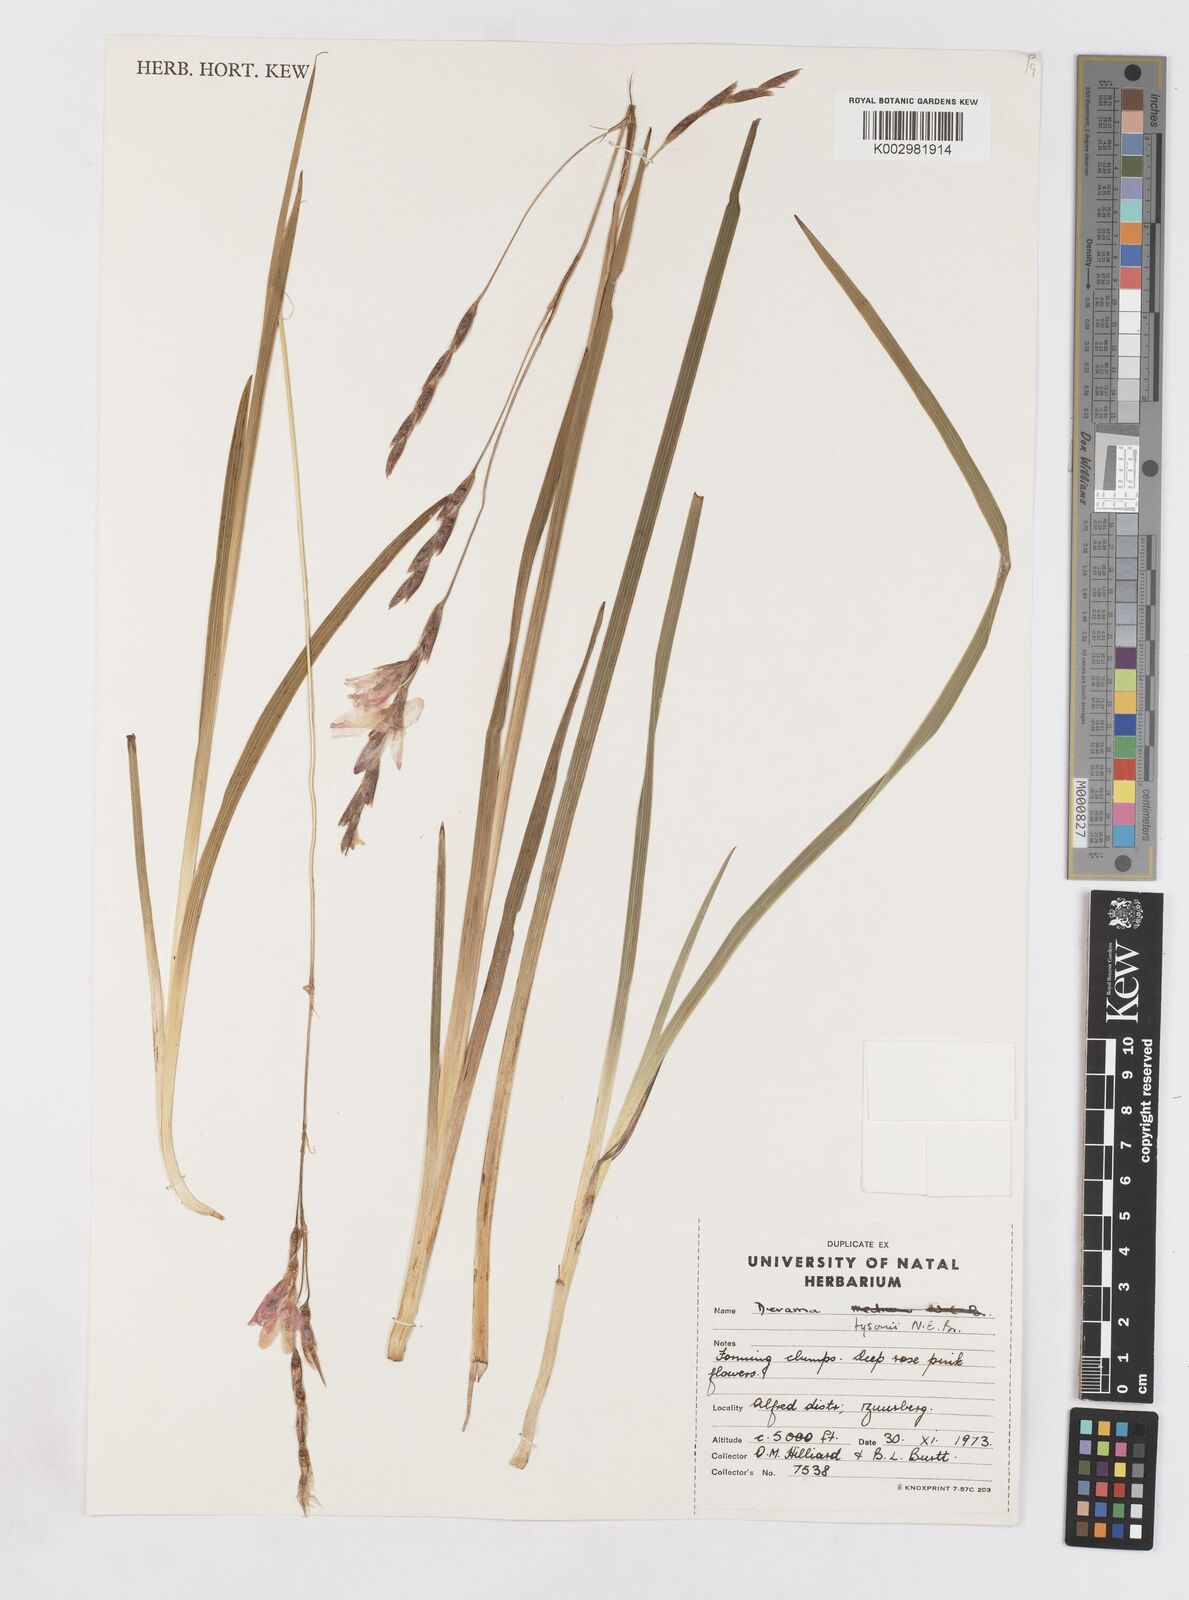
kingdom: Plantae
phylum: Tracheophyta
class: Liliopsida
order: Asparagales
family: Iridaceae
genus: Dierama
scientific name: Dierama tysonii
